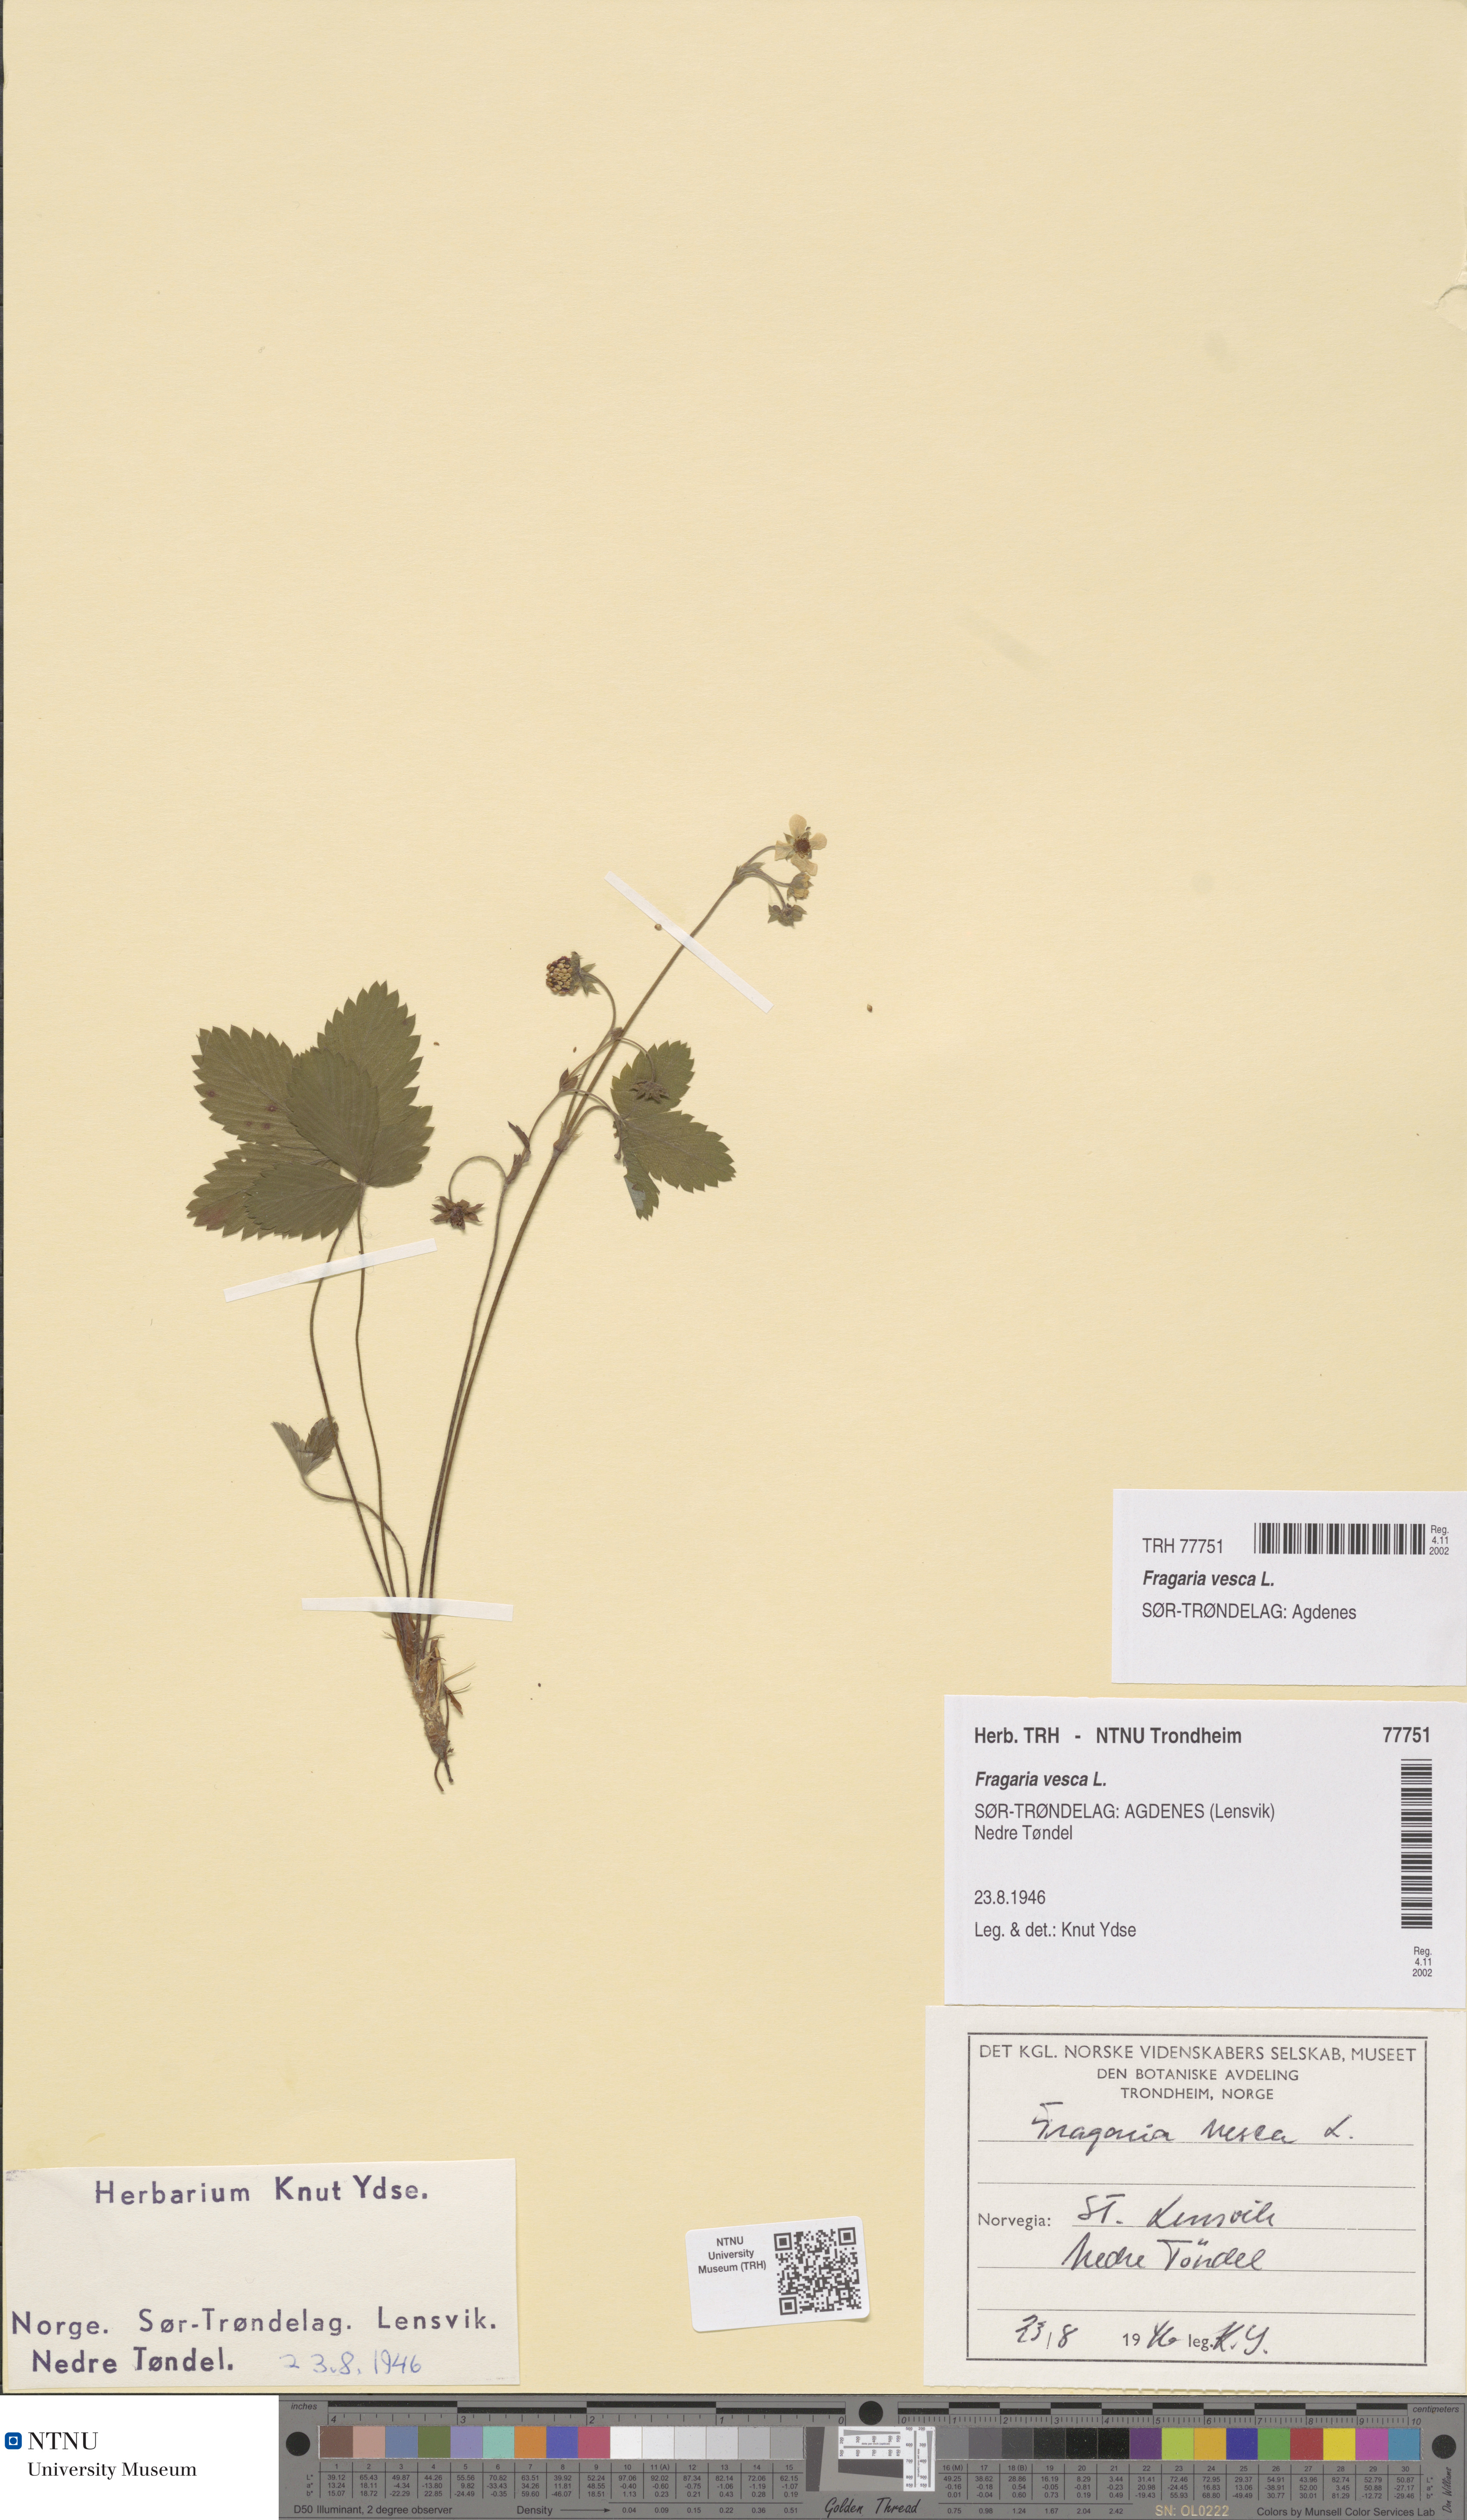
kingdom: Plantae
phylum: Tracheophyta
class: Magnoliopsida
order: Rosales
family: Rosaceae
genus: Fragaria
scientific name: Fragaria vesca
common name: Wild strawberry
